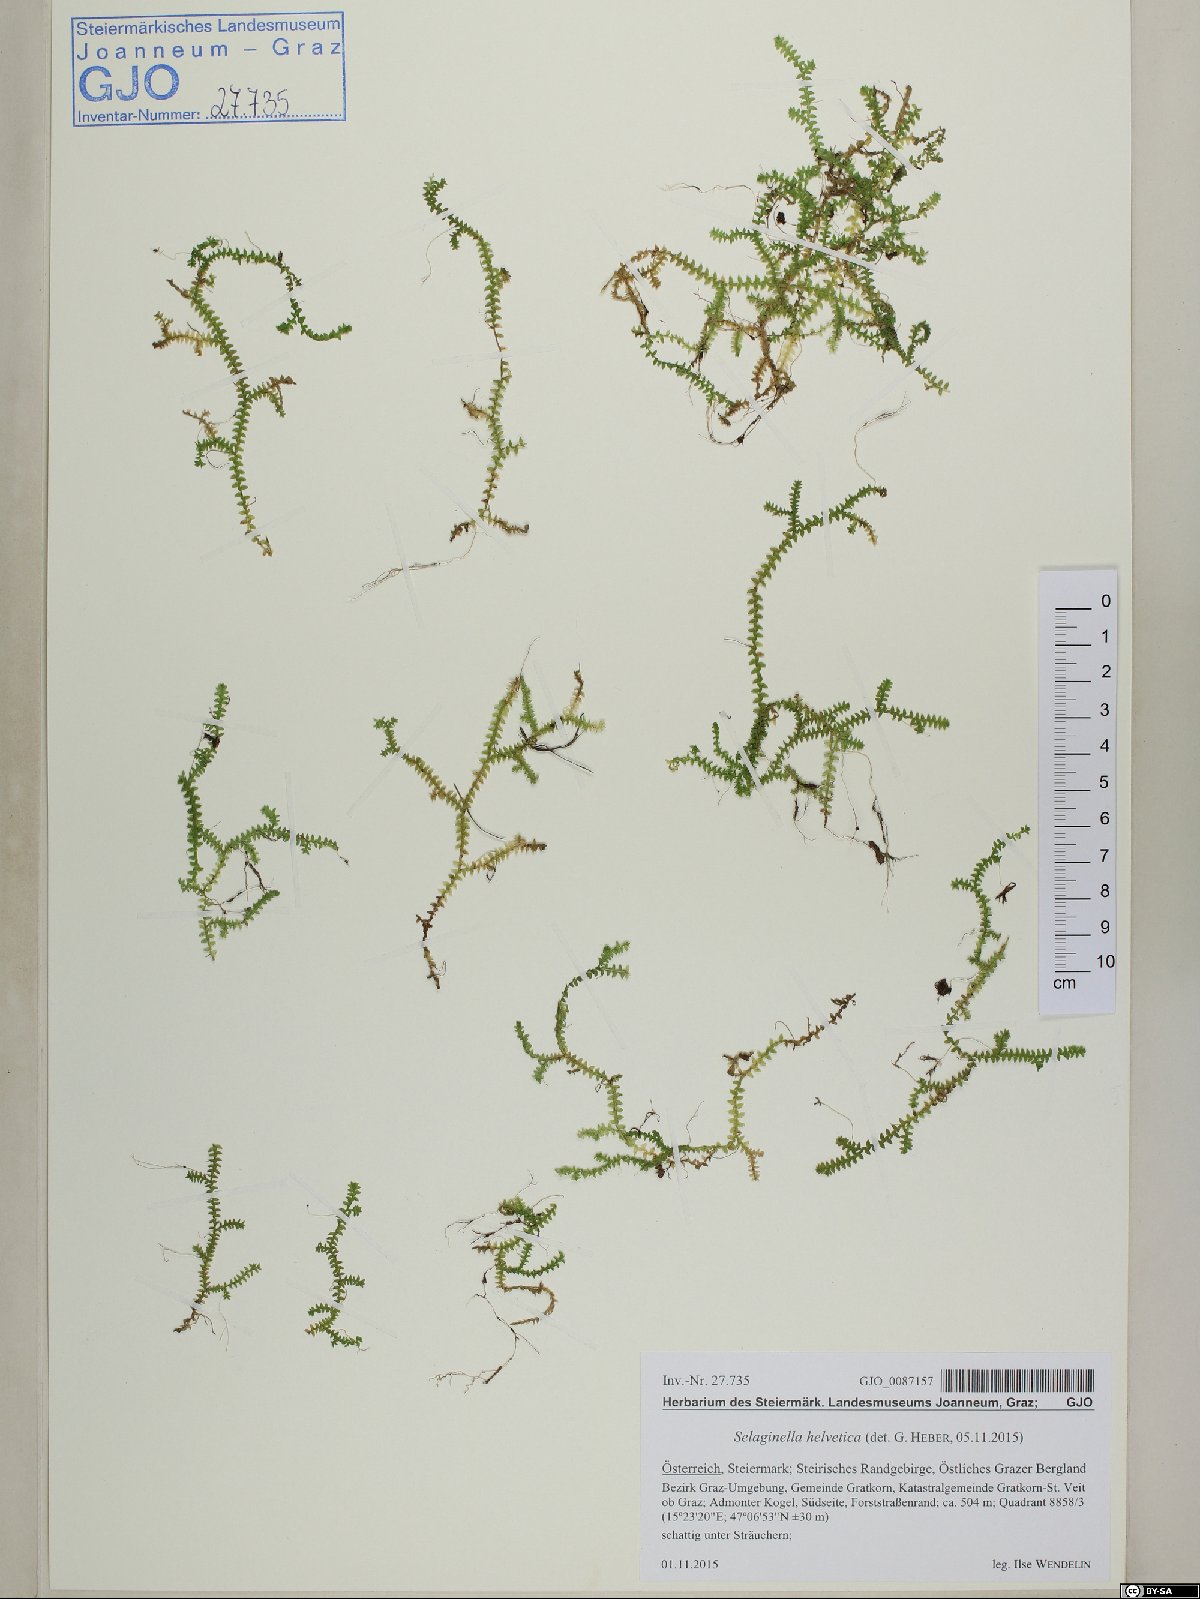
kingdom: Plantae
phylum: Tracheophyta
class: Lycopodiopsida
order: Selaginellales
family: Selaginellaceae
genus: Selaginella
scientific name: Selaginella helvetica
